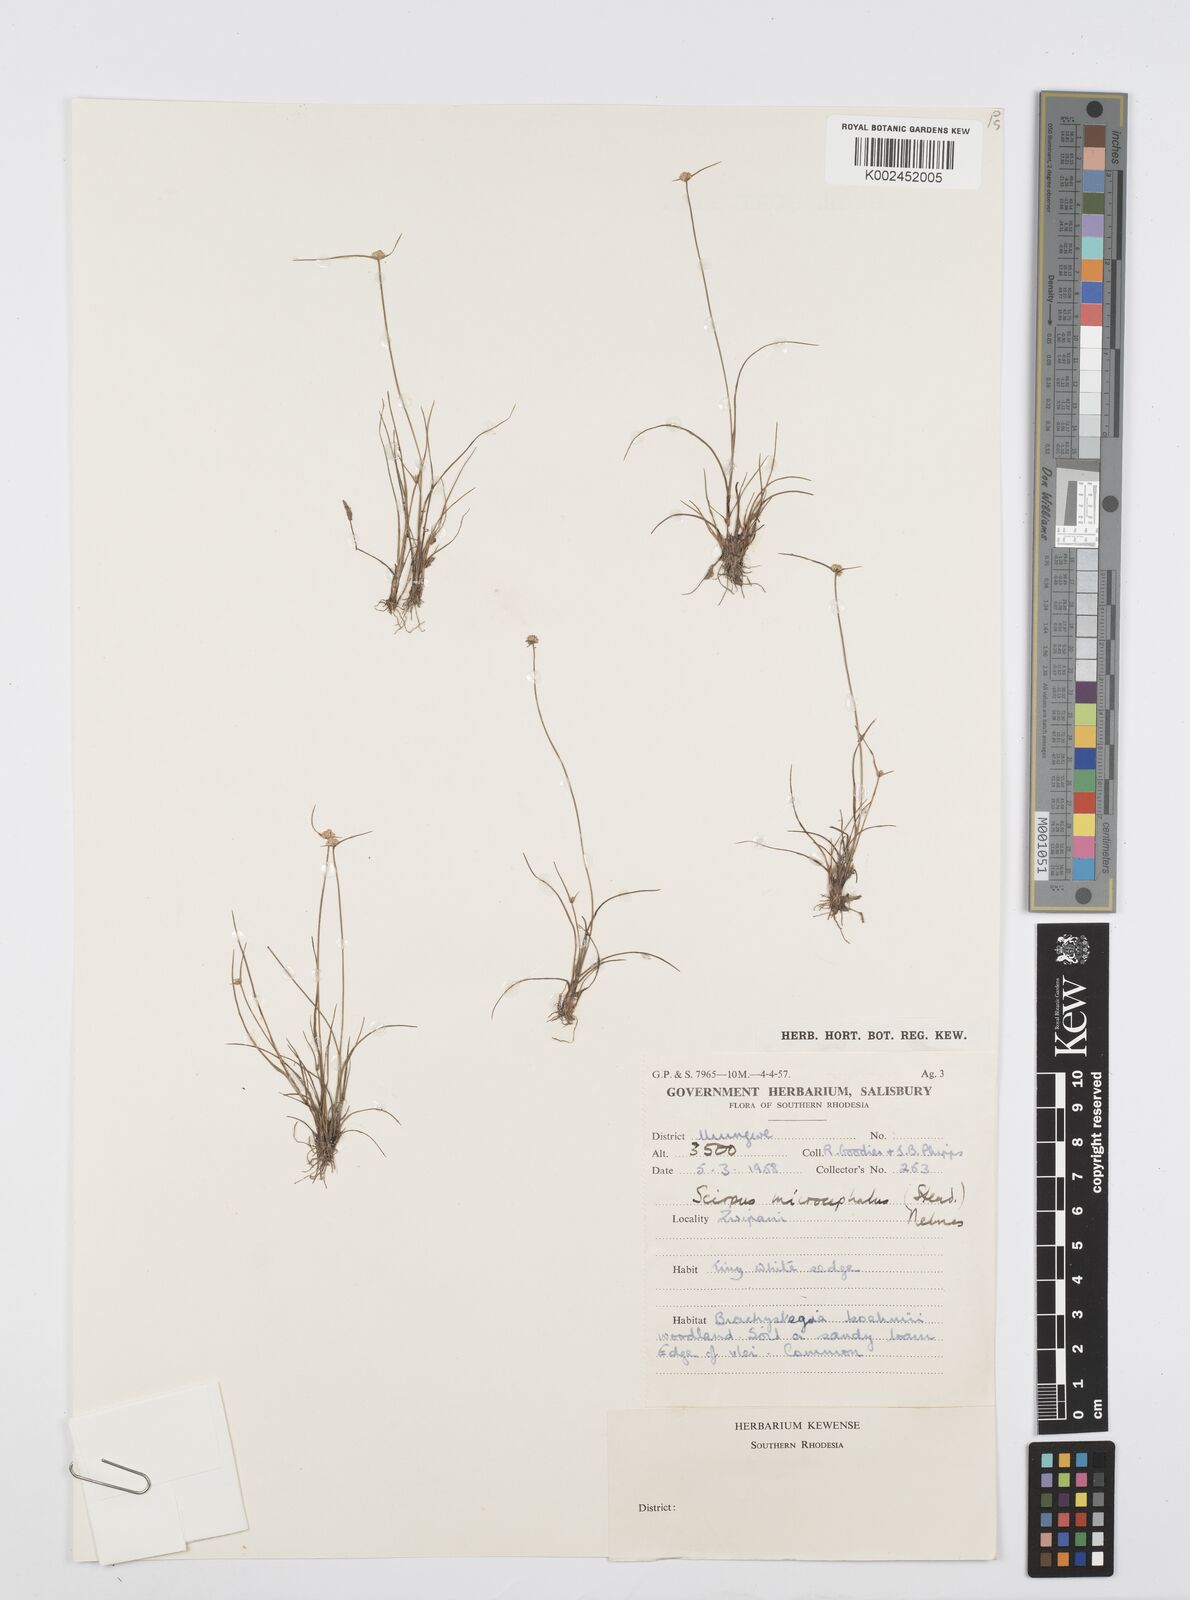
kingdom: Plantae
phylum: Tracheophyta
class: Liliopsida
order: Poales
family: Cyperaceae
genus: Cyperus
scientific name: Cyperus conglobatus
